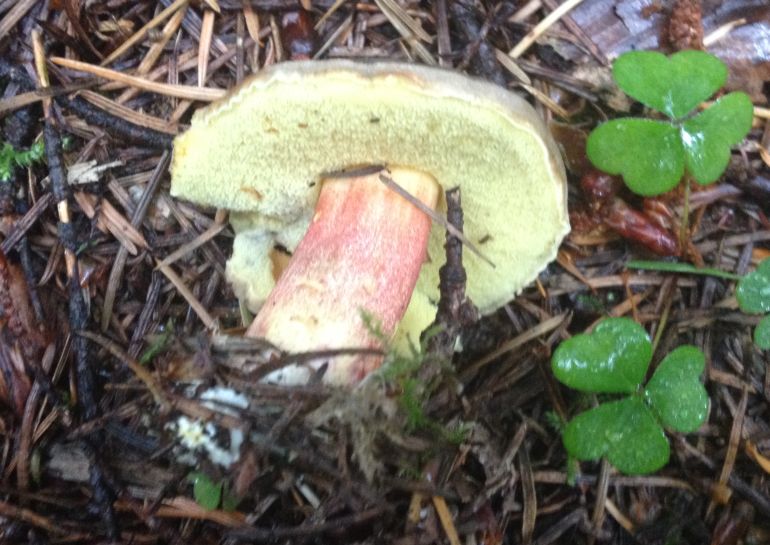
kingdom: Fungi
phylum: Basidiomycota
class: Agaricomycetes
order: Boletales
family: Boletaceae
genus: Xerocomellus
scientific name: Xerocomellus chrysenteron
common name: rødsprukken rørhat
